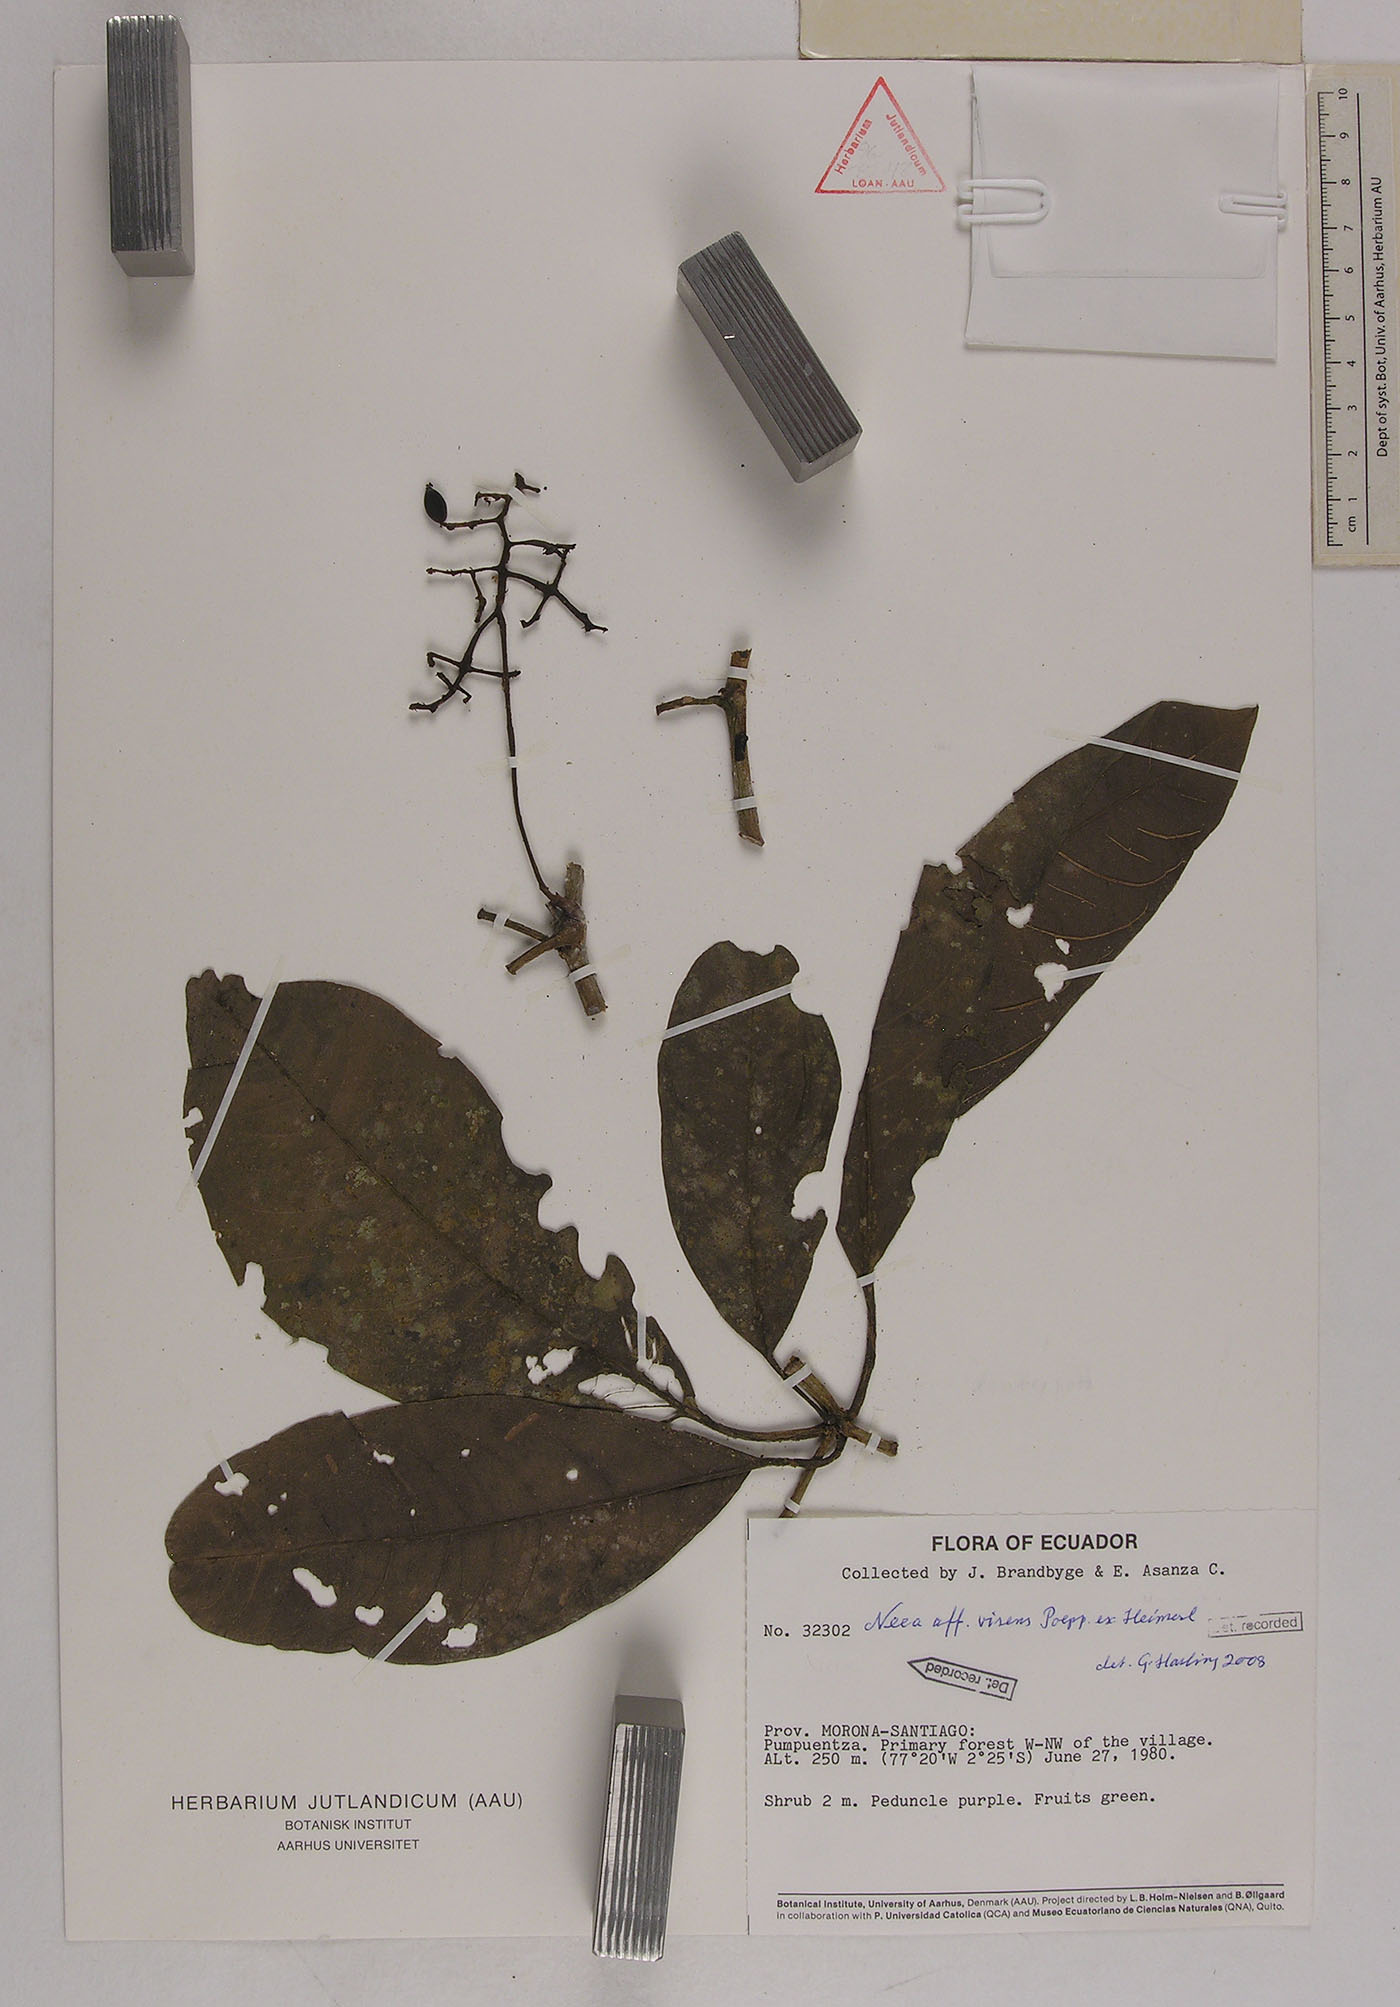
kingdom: Plantae
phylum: Tracheophyta
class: Magnoliopsida
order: Caryophyllales
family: Nyctaginaceae
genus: Neea
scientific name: Neea virens
